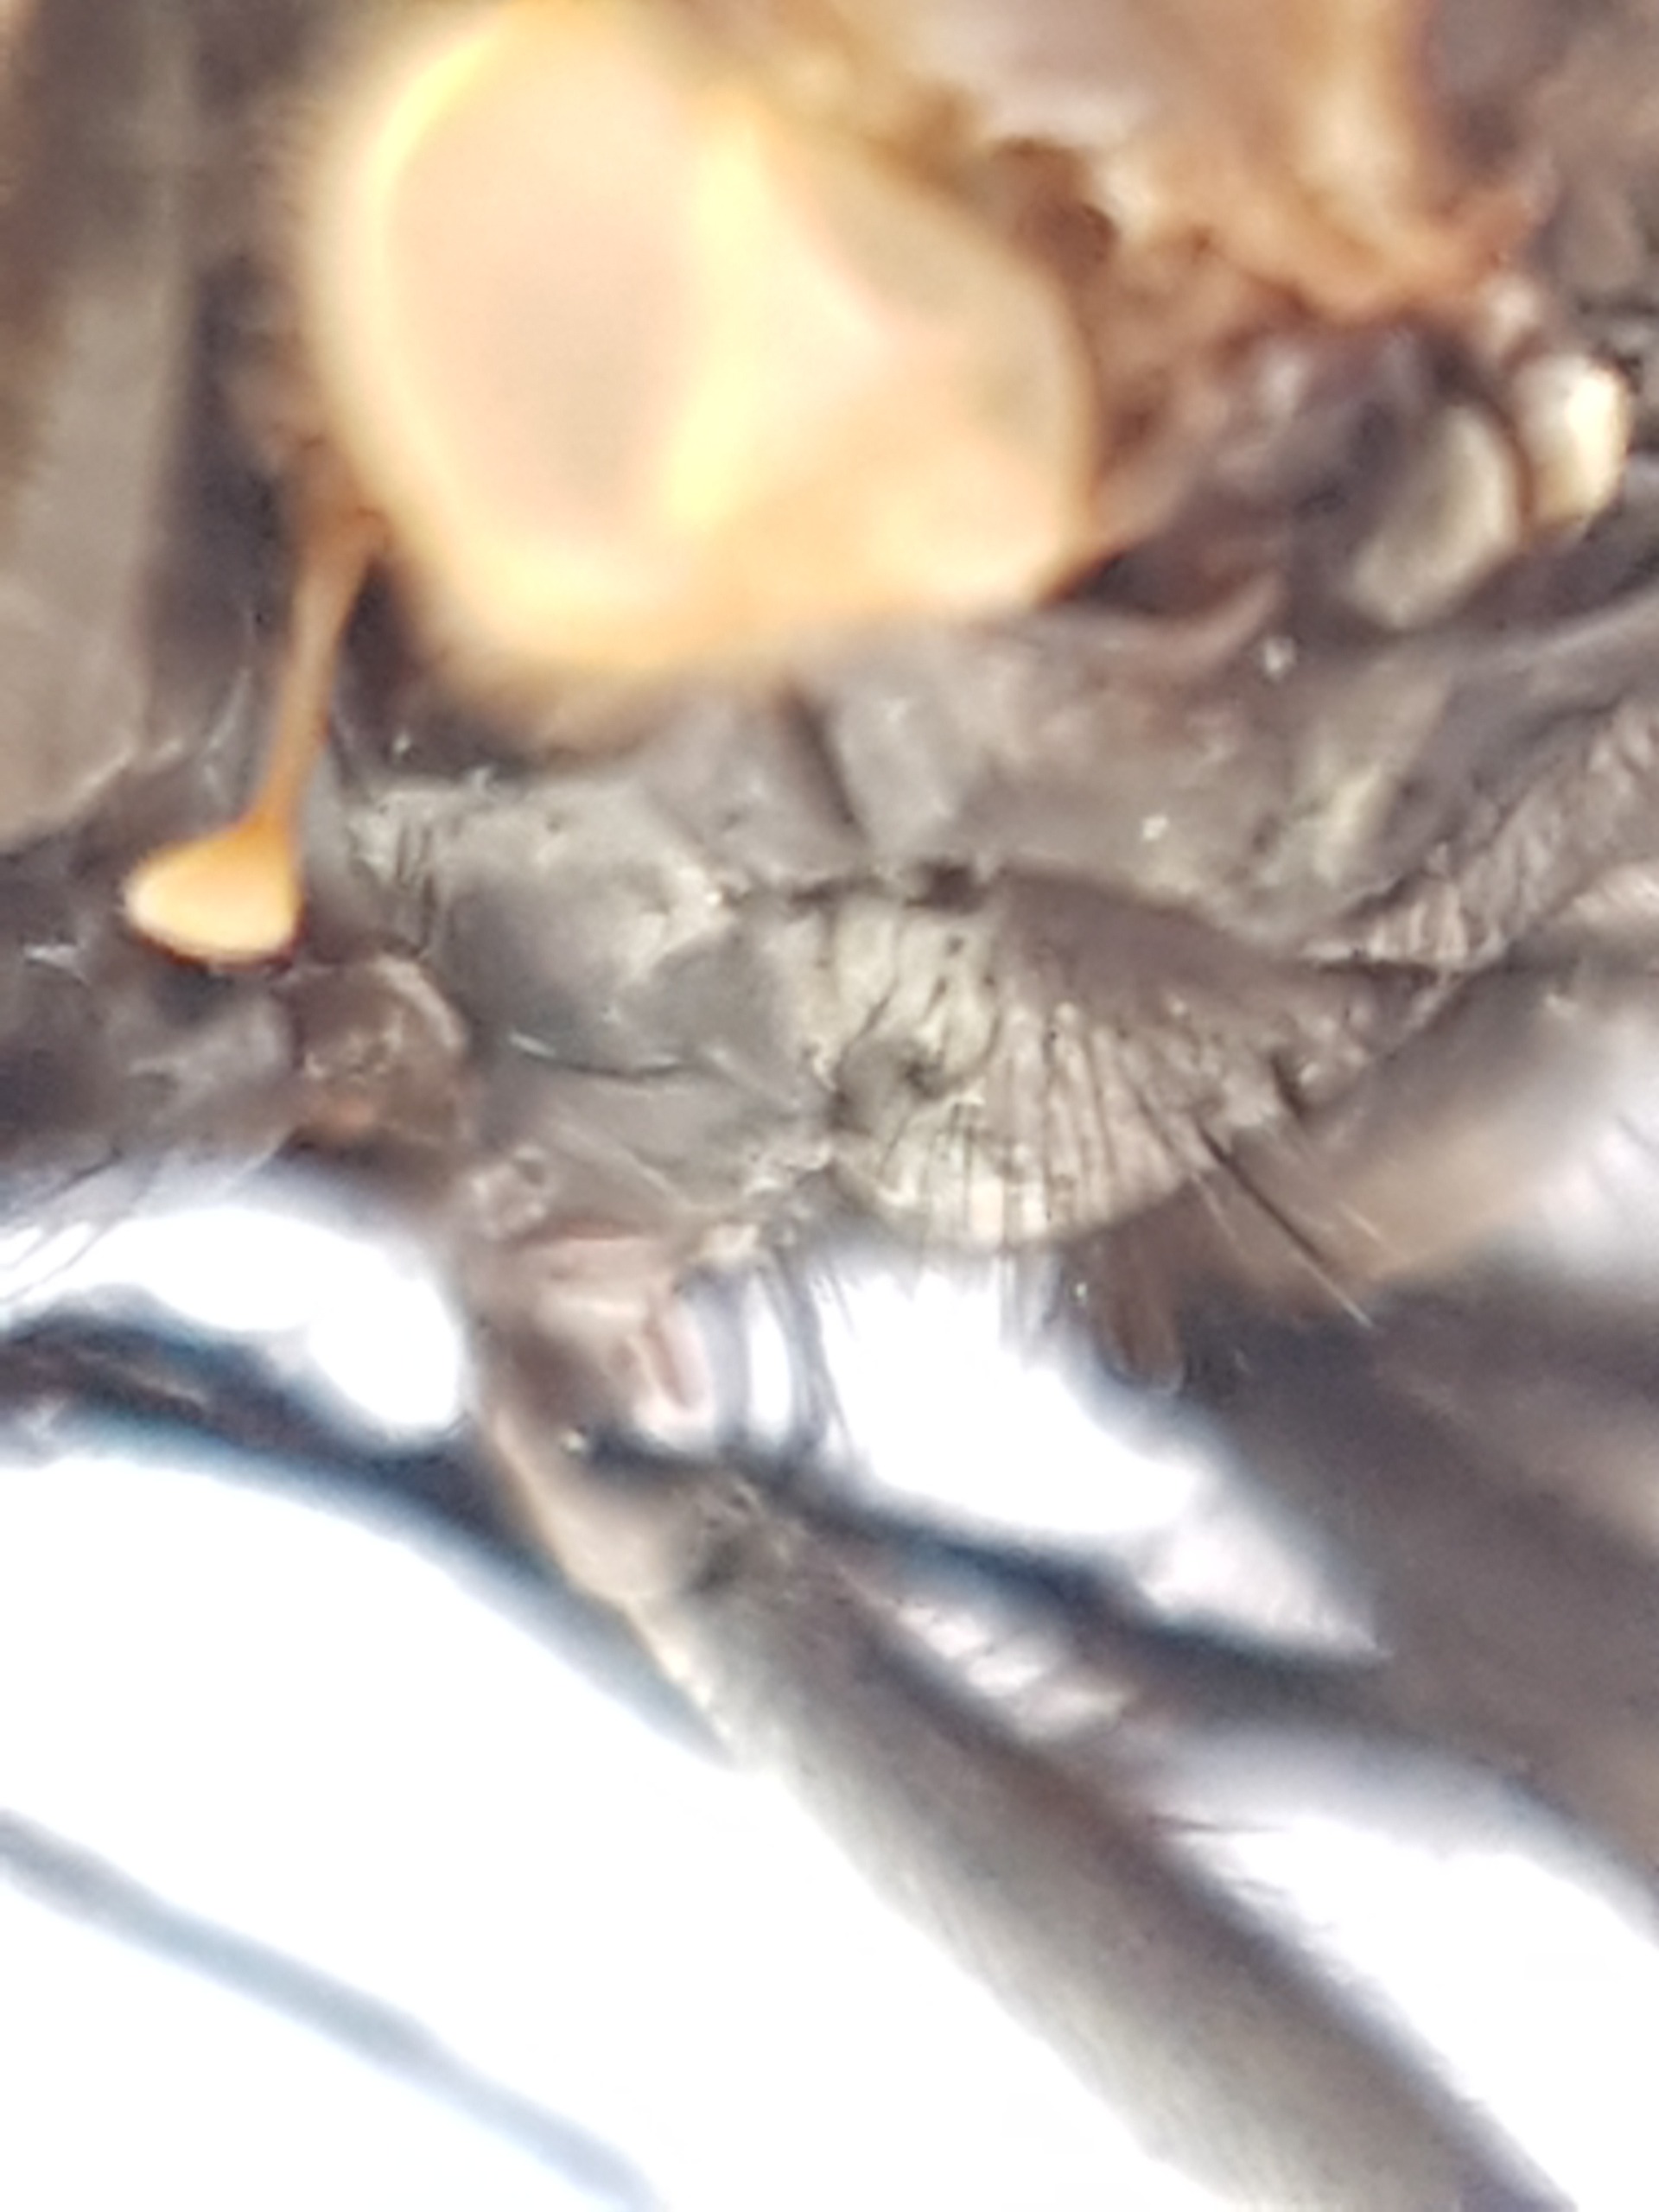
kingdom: Animalia
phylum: Arthropoda
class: Insecta
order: Diptera
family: Muscidae
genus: Helina
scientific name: Helina evecta
